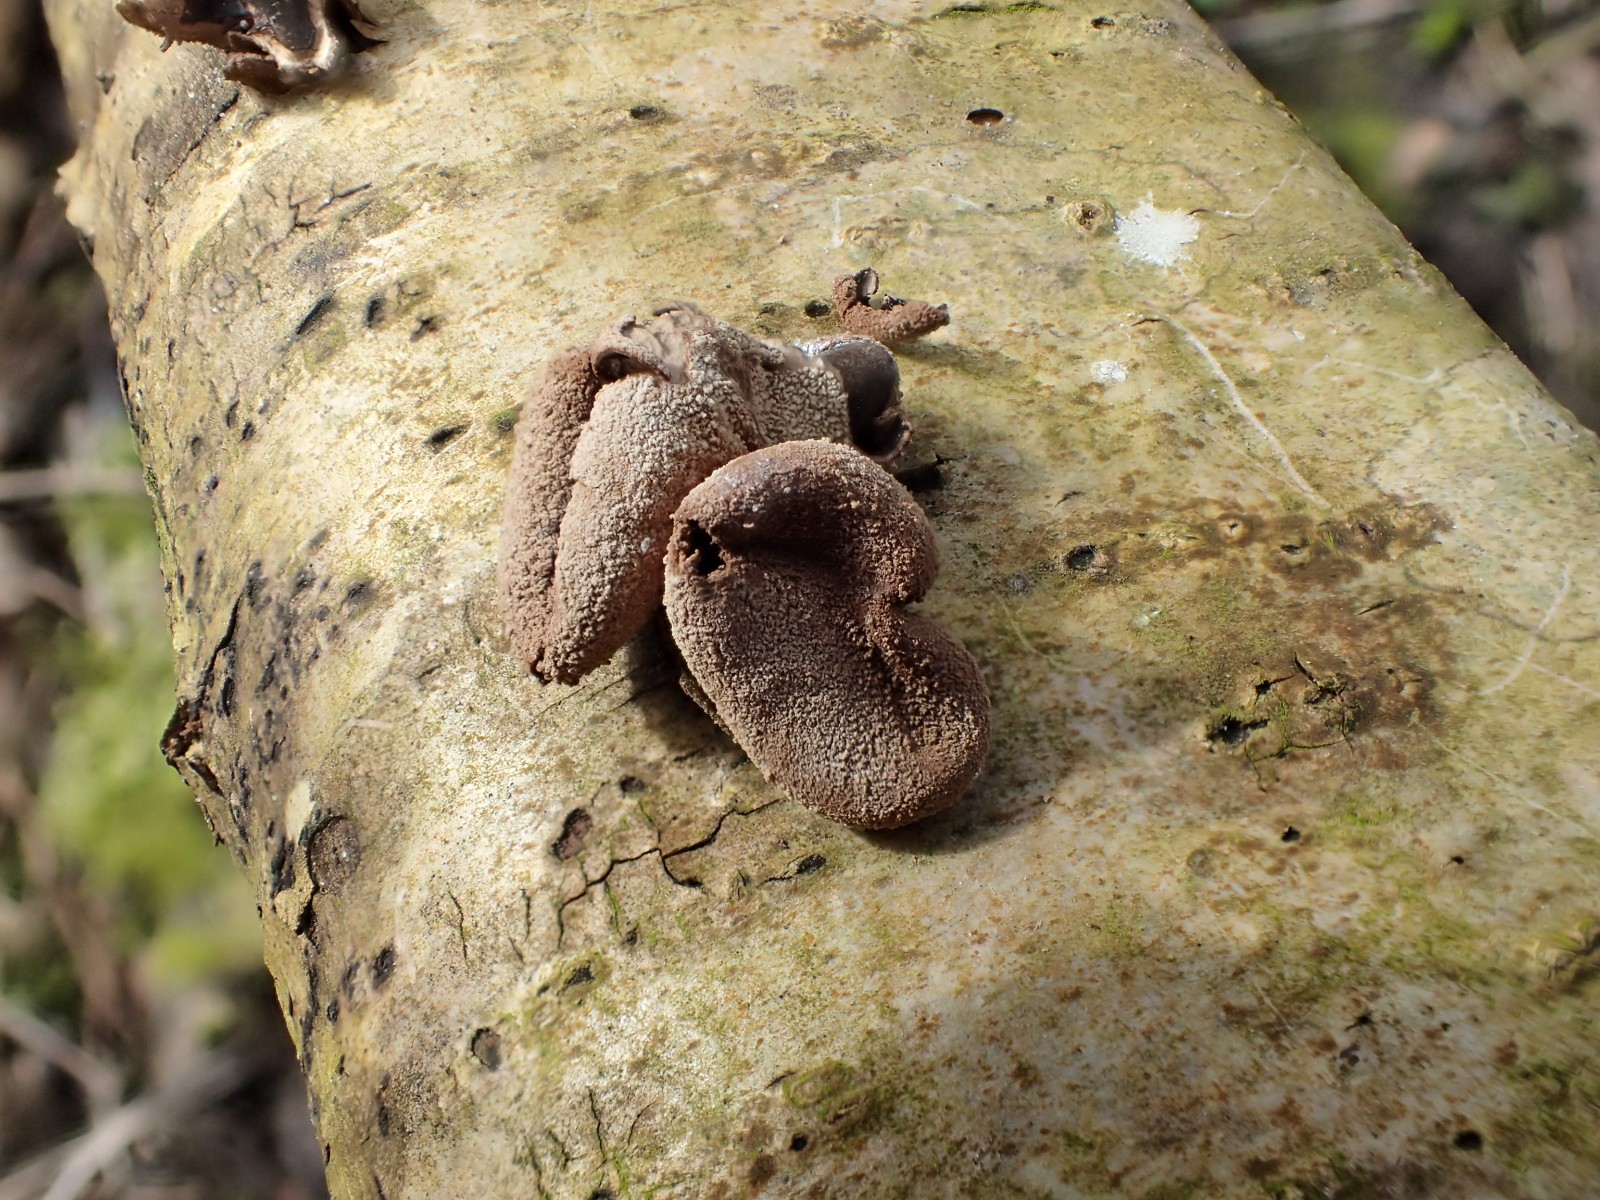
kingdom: Fungi
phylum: Ascomycota
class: Leotiomycetes
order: Helotiales
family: Cenangiaceae
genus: Encoelia
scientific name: Encoelia furfuracea
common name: hassel-læderskive
